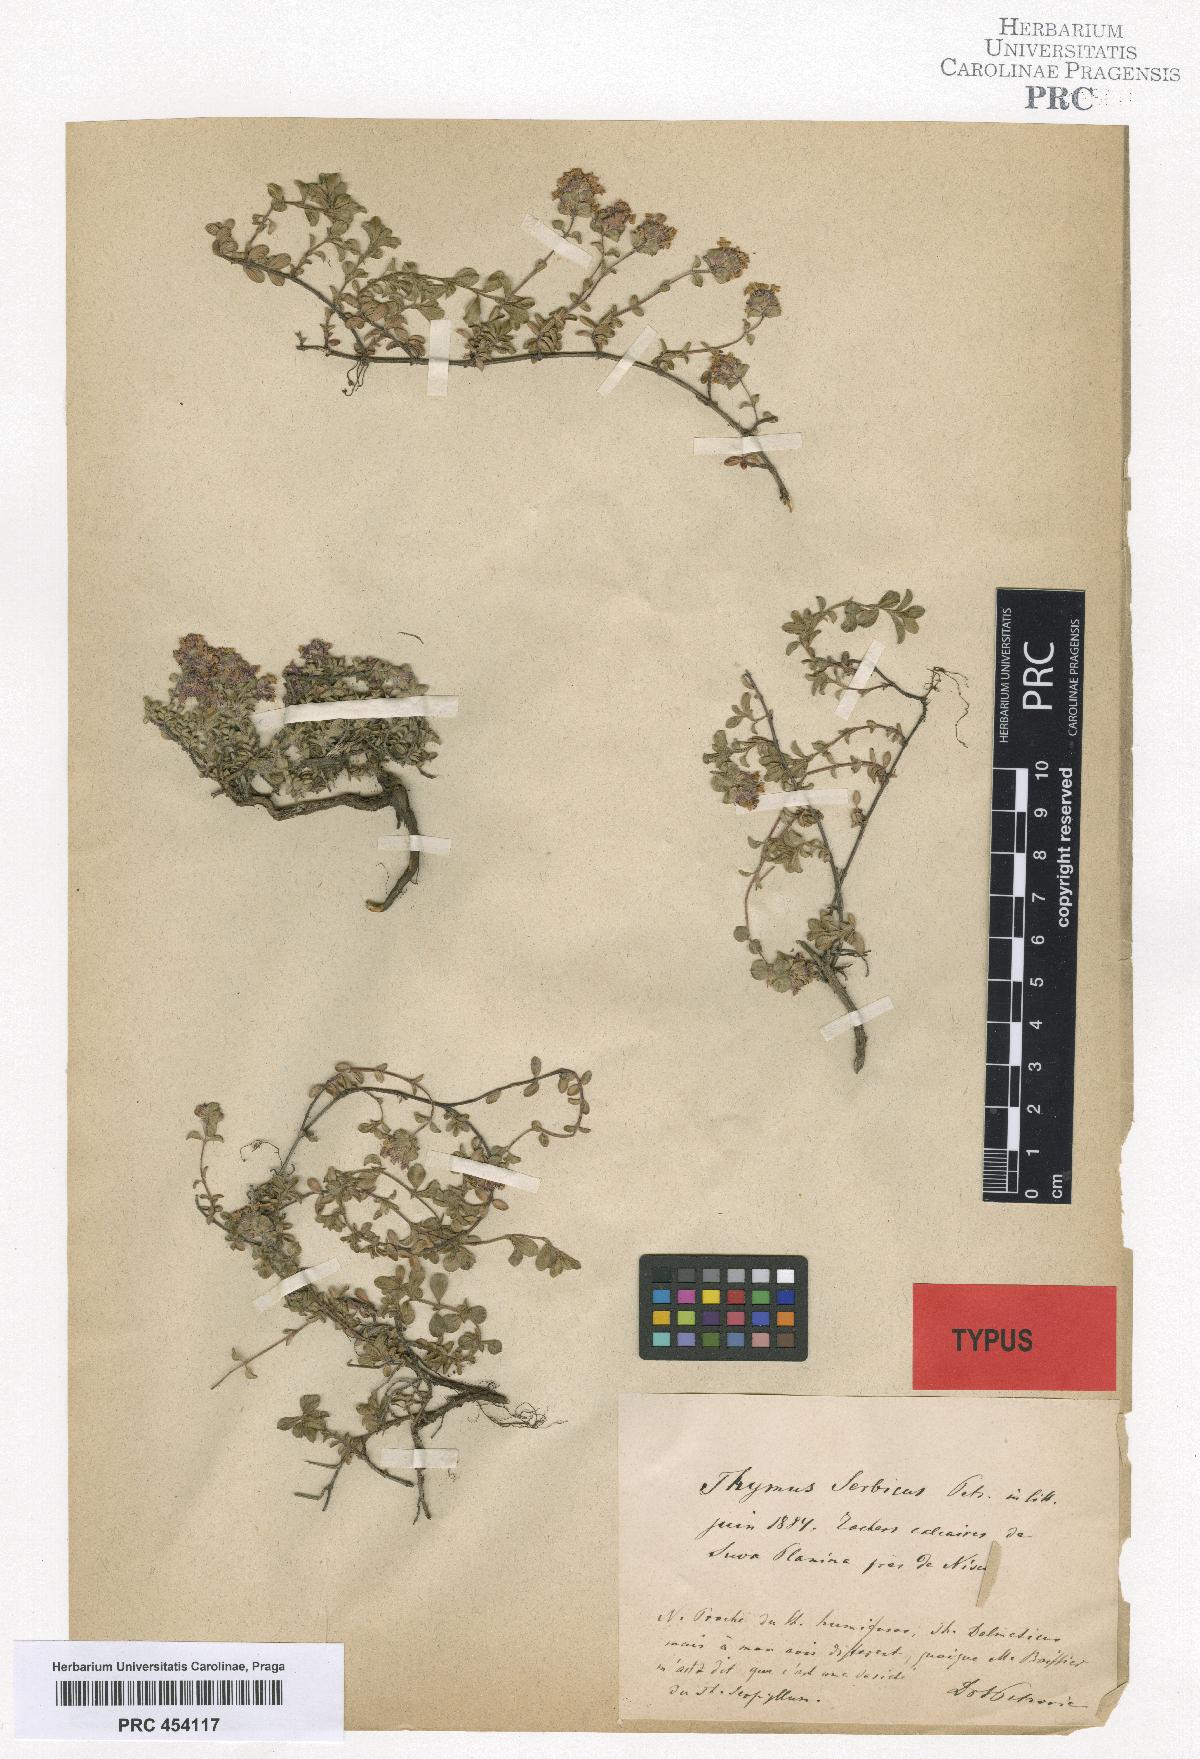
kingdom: Plantae
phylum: Tracheophyta
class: Magnoliopsida
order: Lamiales
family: Lamiaceae
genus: Thymus
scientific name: Thymus serpyllum
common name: Breckland thyme
